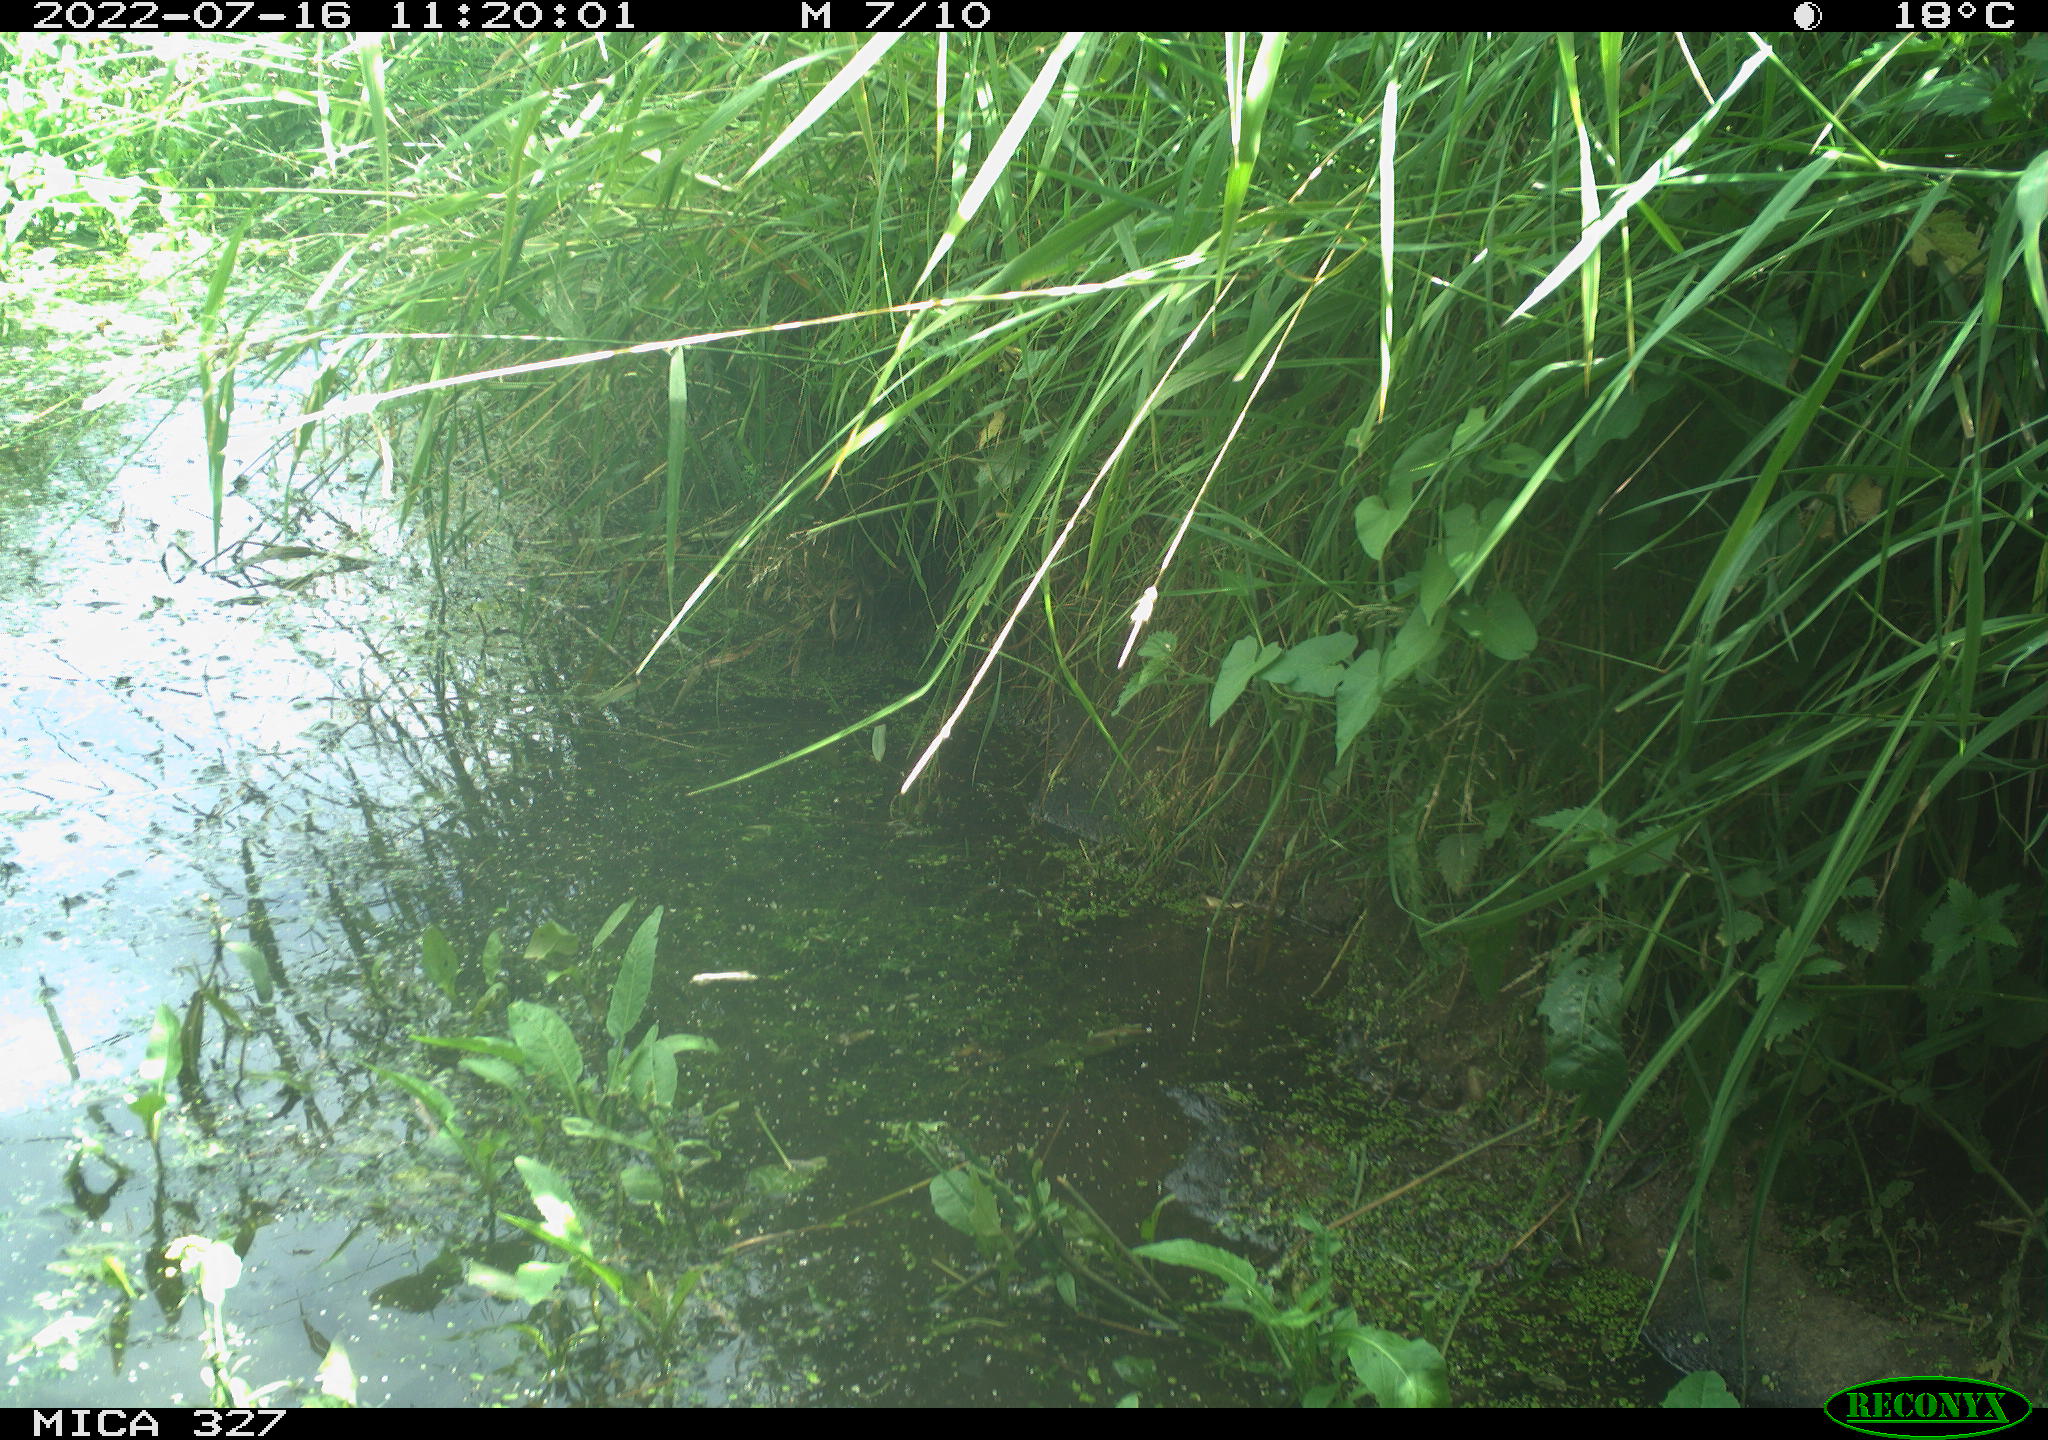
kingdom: Animalia
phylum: Chordata
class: Aves
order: Anseriformes
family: Anatidae
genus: Anas
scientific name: Anas
